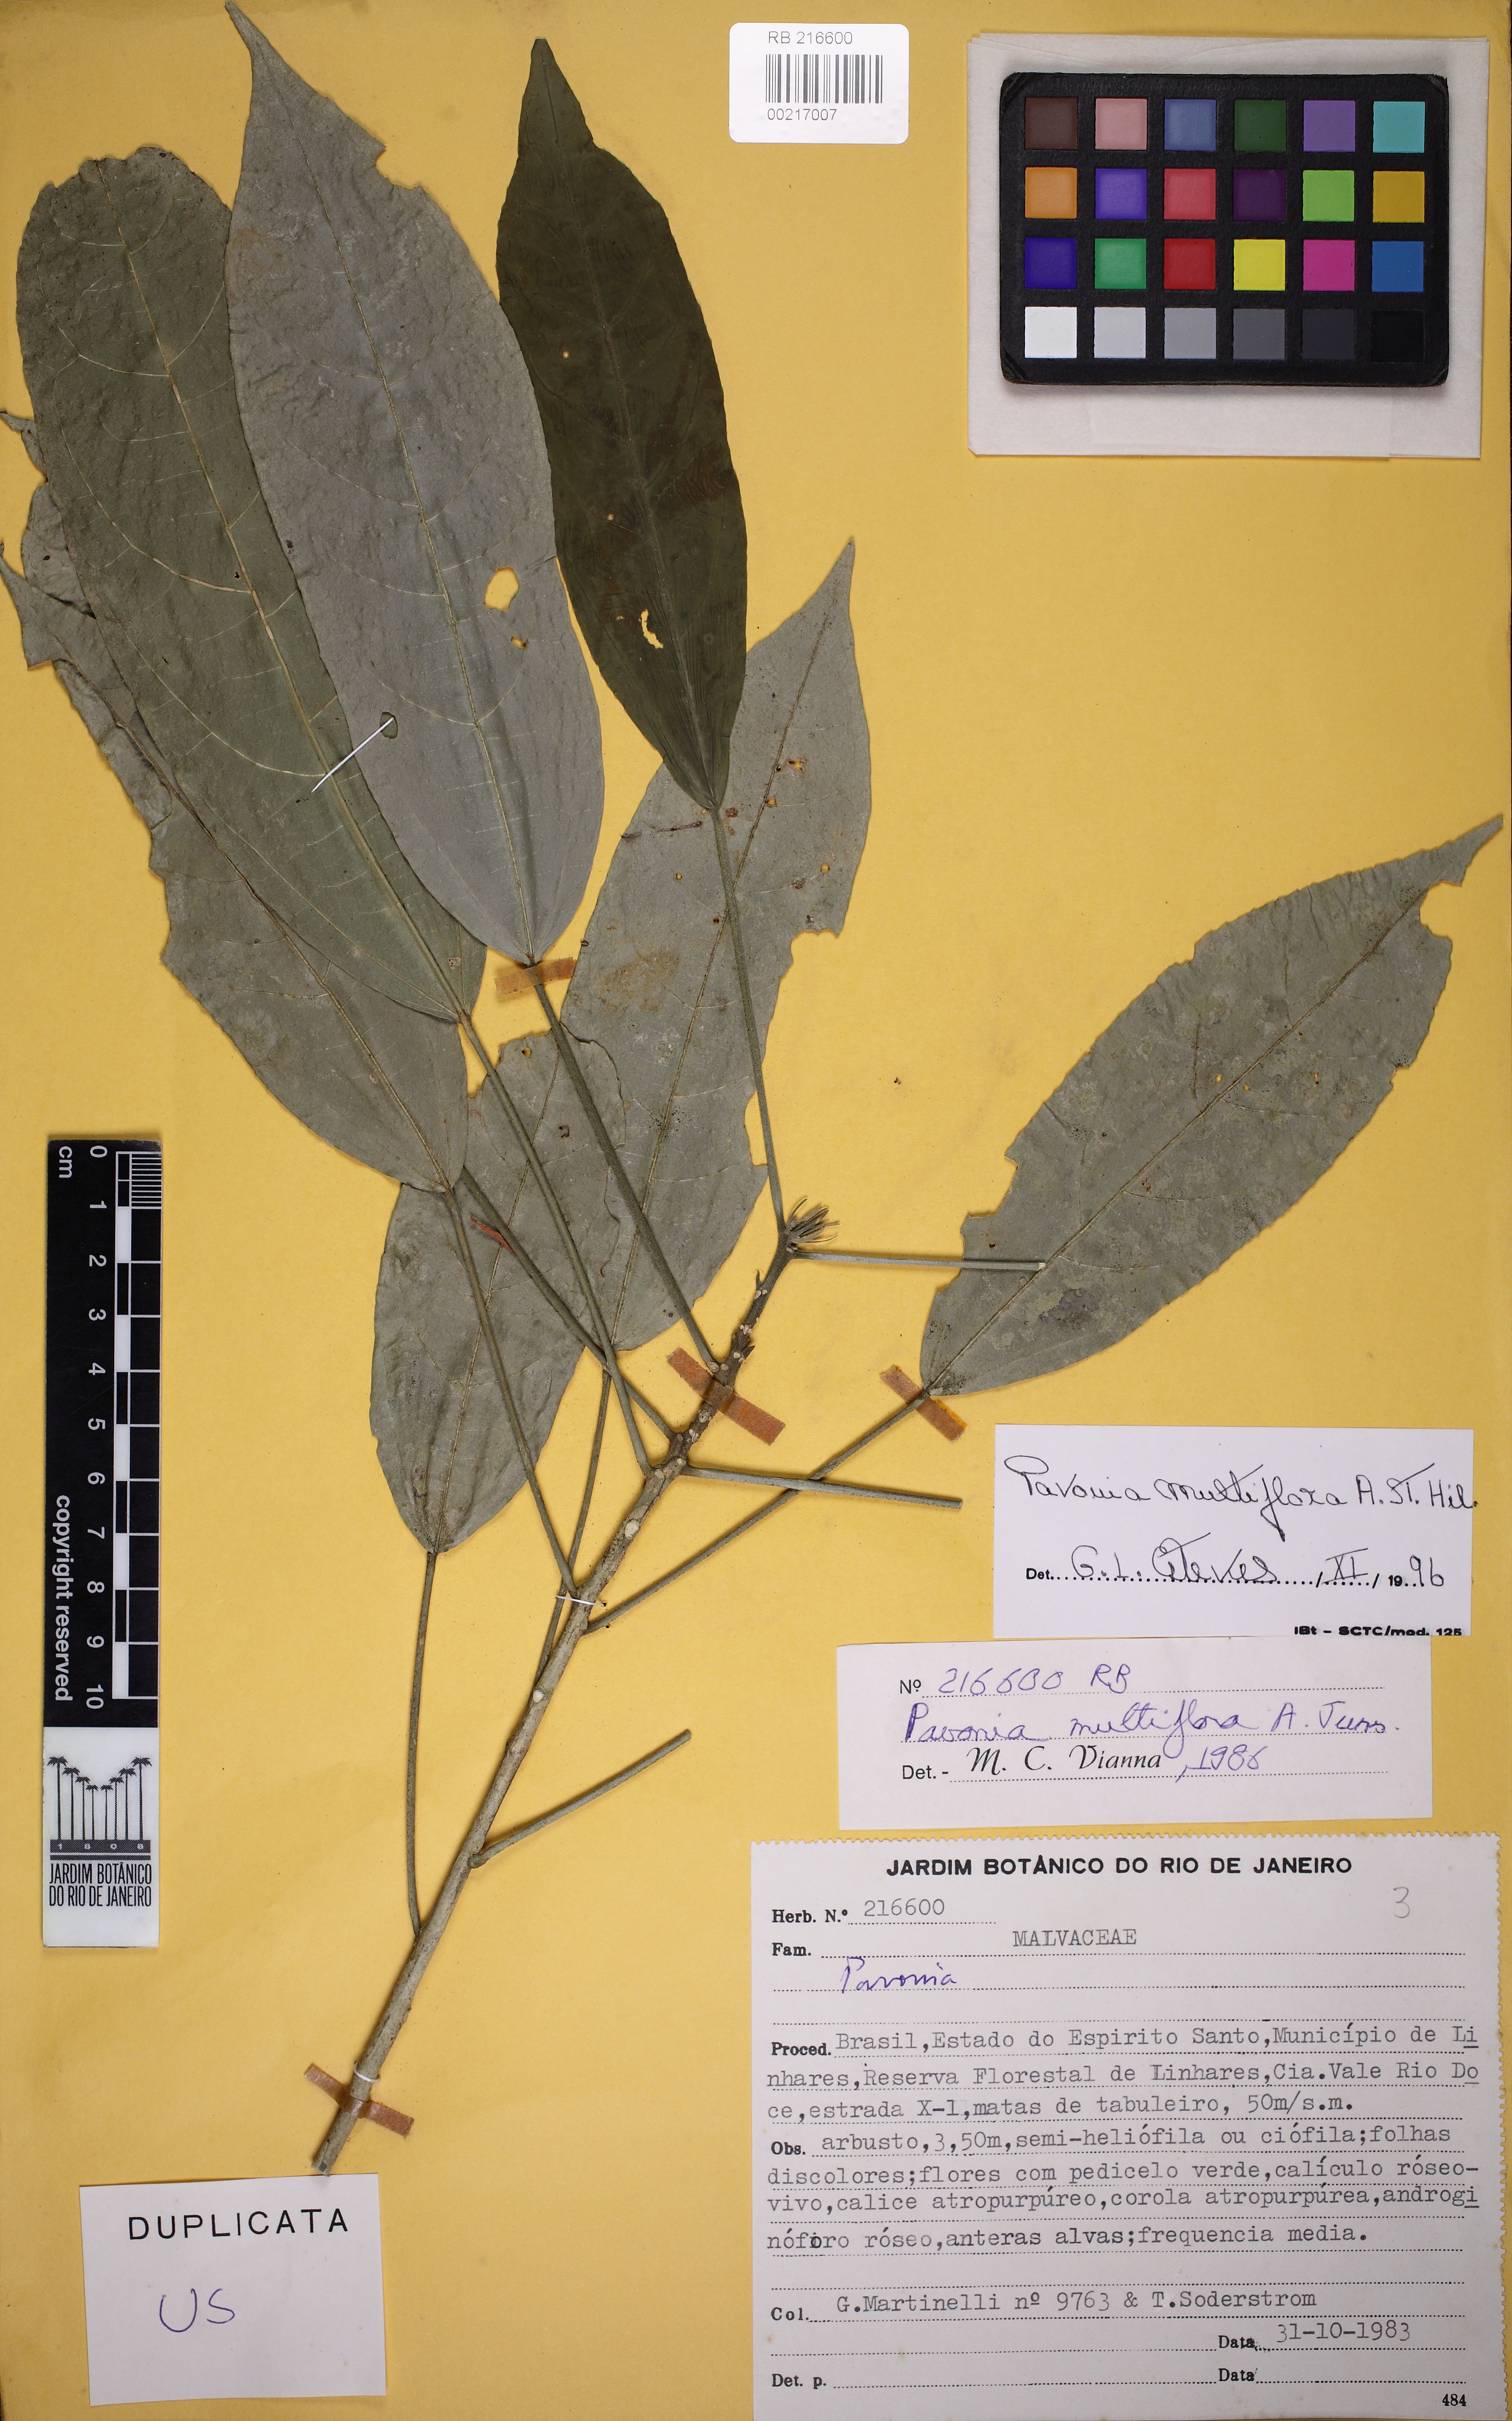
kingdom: Plantae
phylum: Tracheophyta
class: Magnoliopsida
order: Malvales
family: Malvaceae
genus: Pavonia
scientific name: Pavonia multiflora
